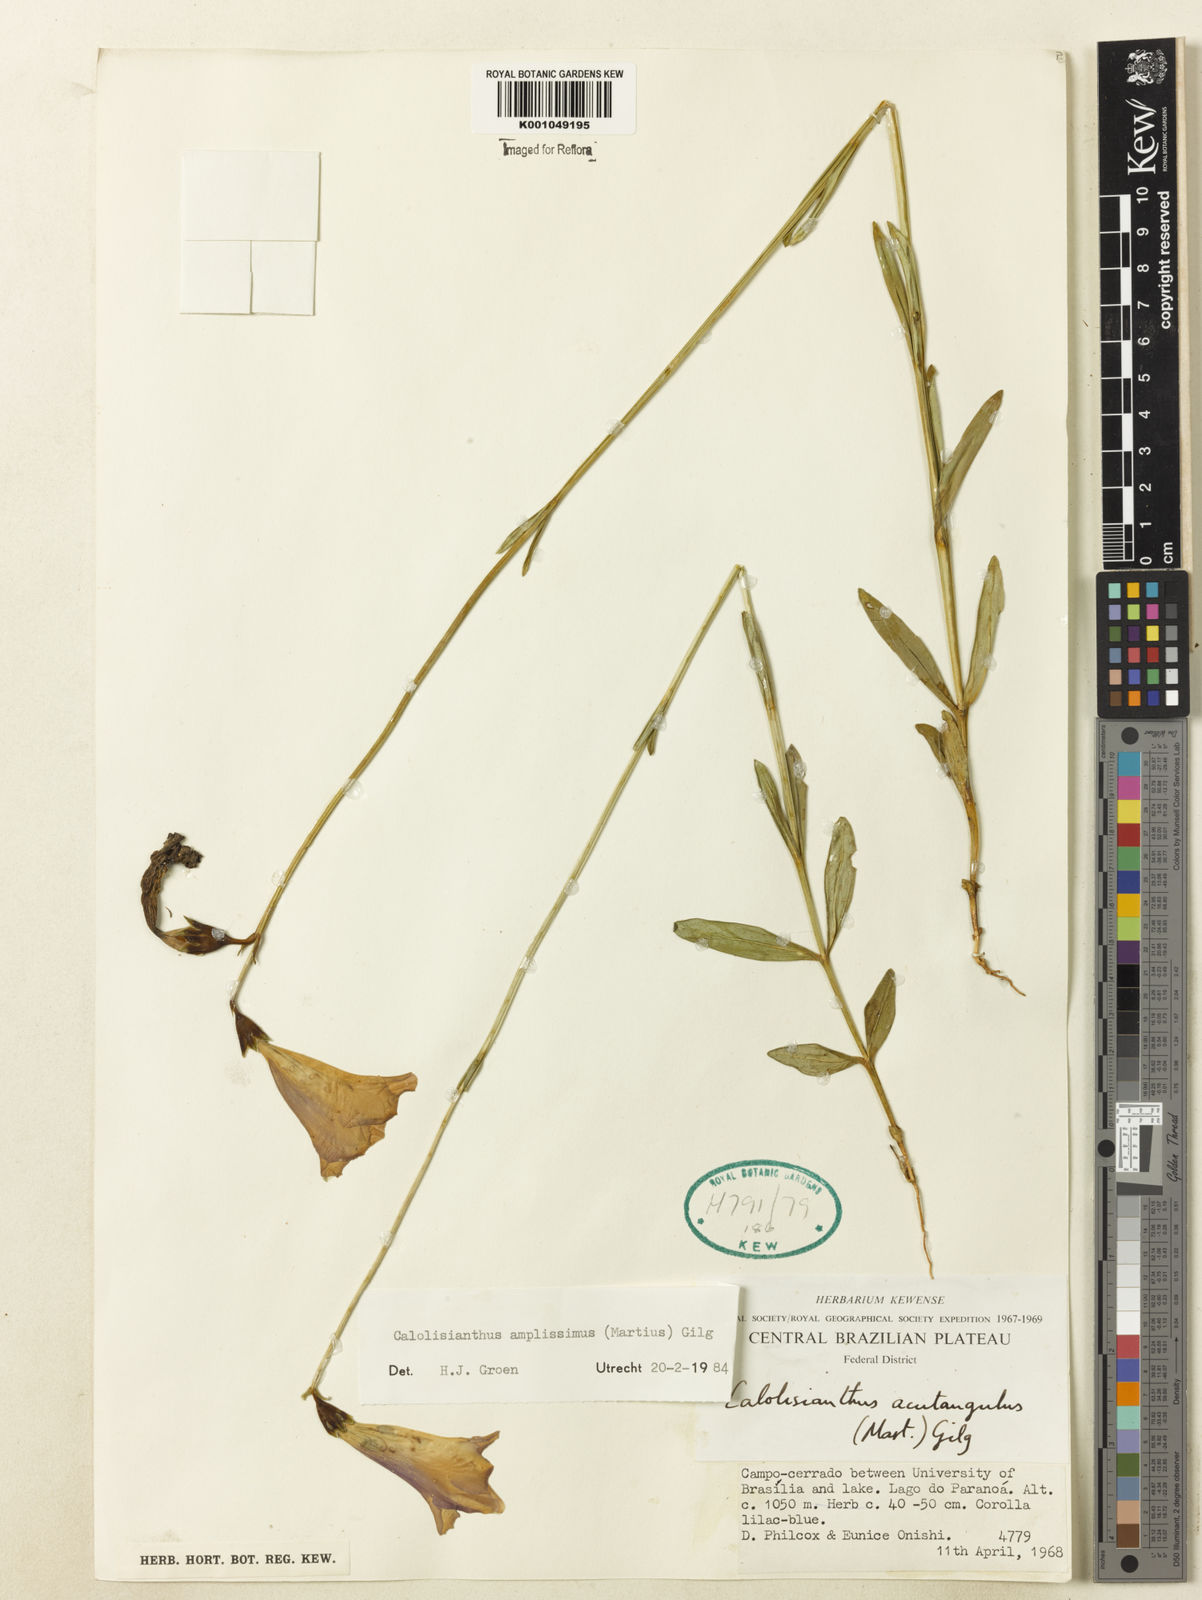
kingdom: Plantae
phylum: Tracheophyta
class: Magnoliopsida
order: Gentianales
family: Gentianaceae
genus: Calolisianthus
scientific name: Calolisianthus amplissimus
